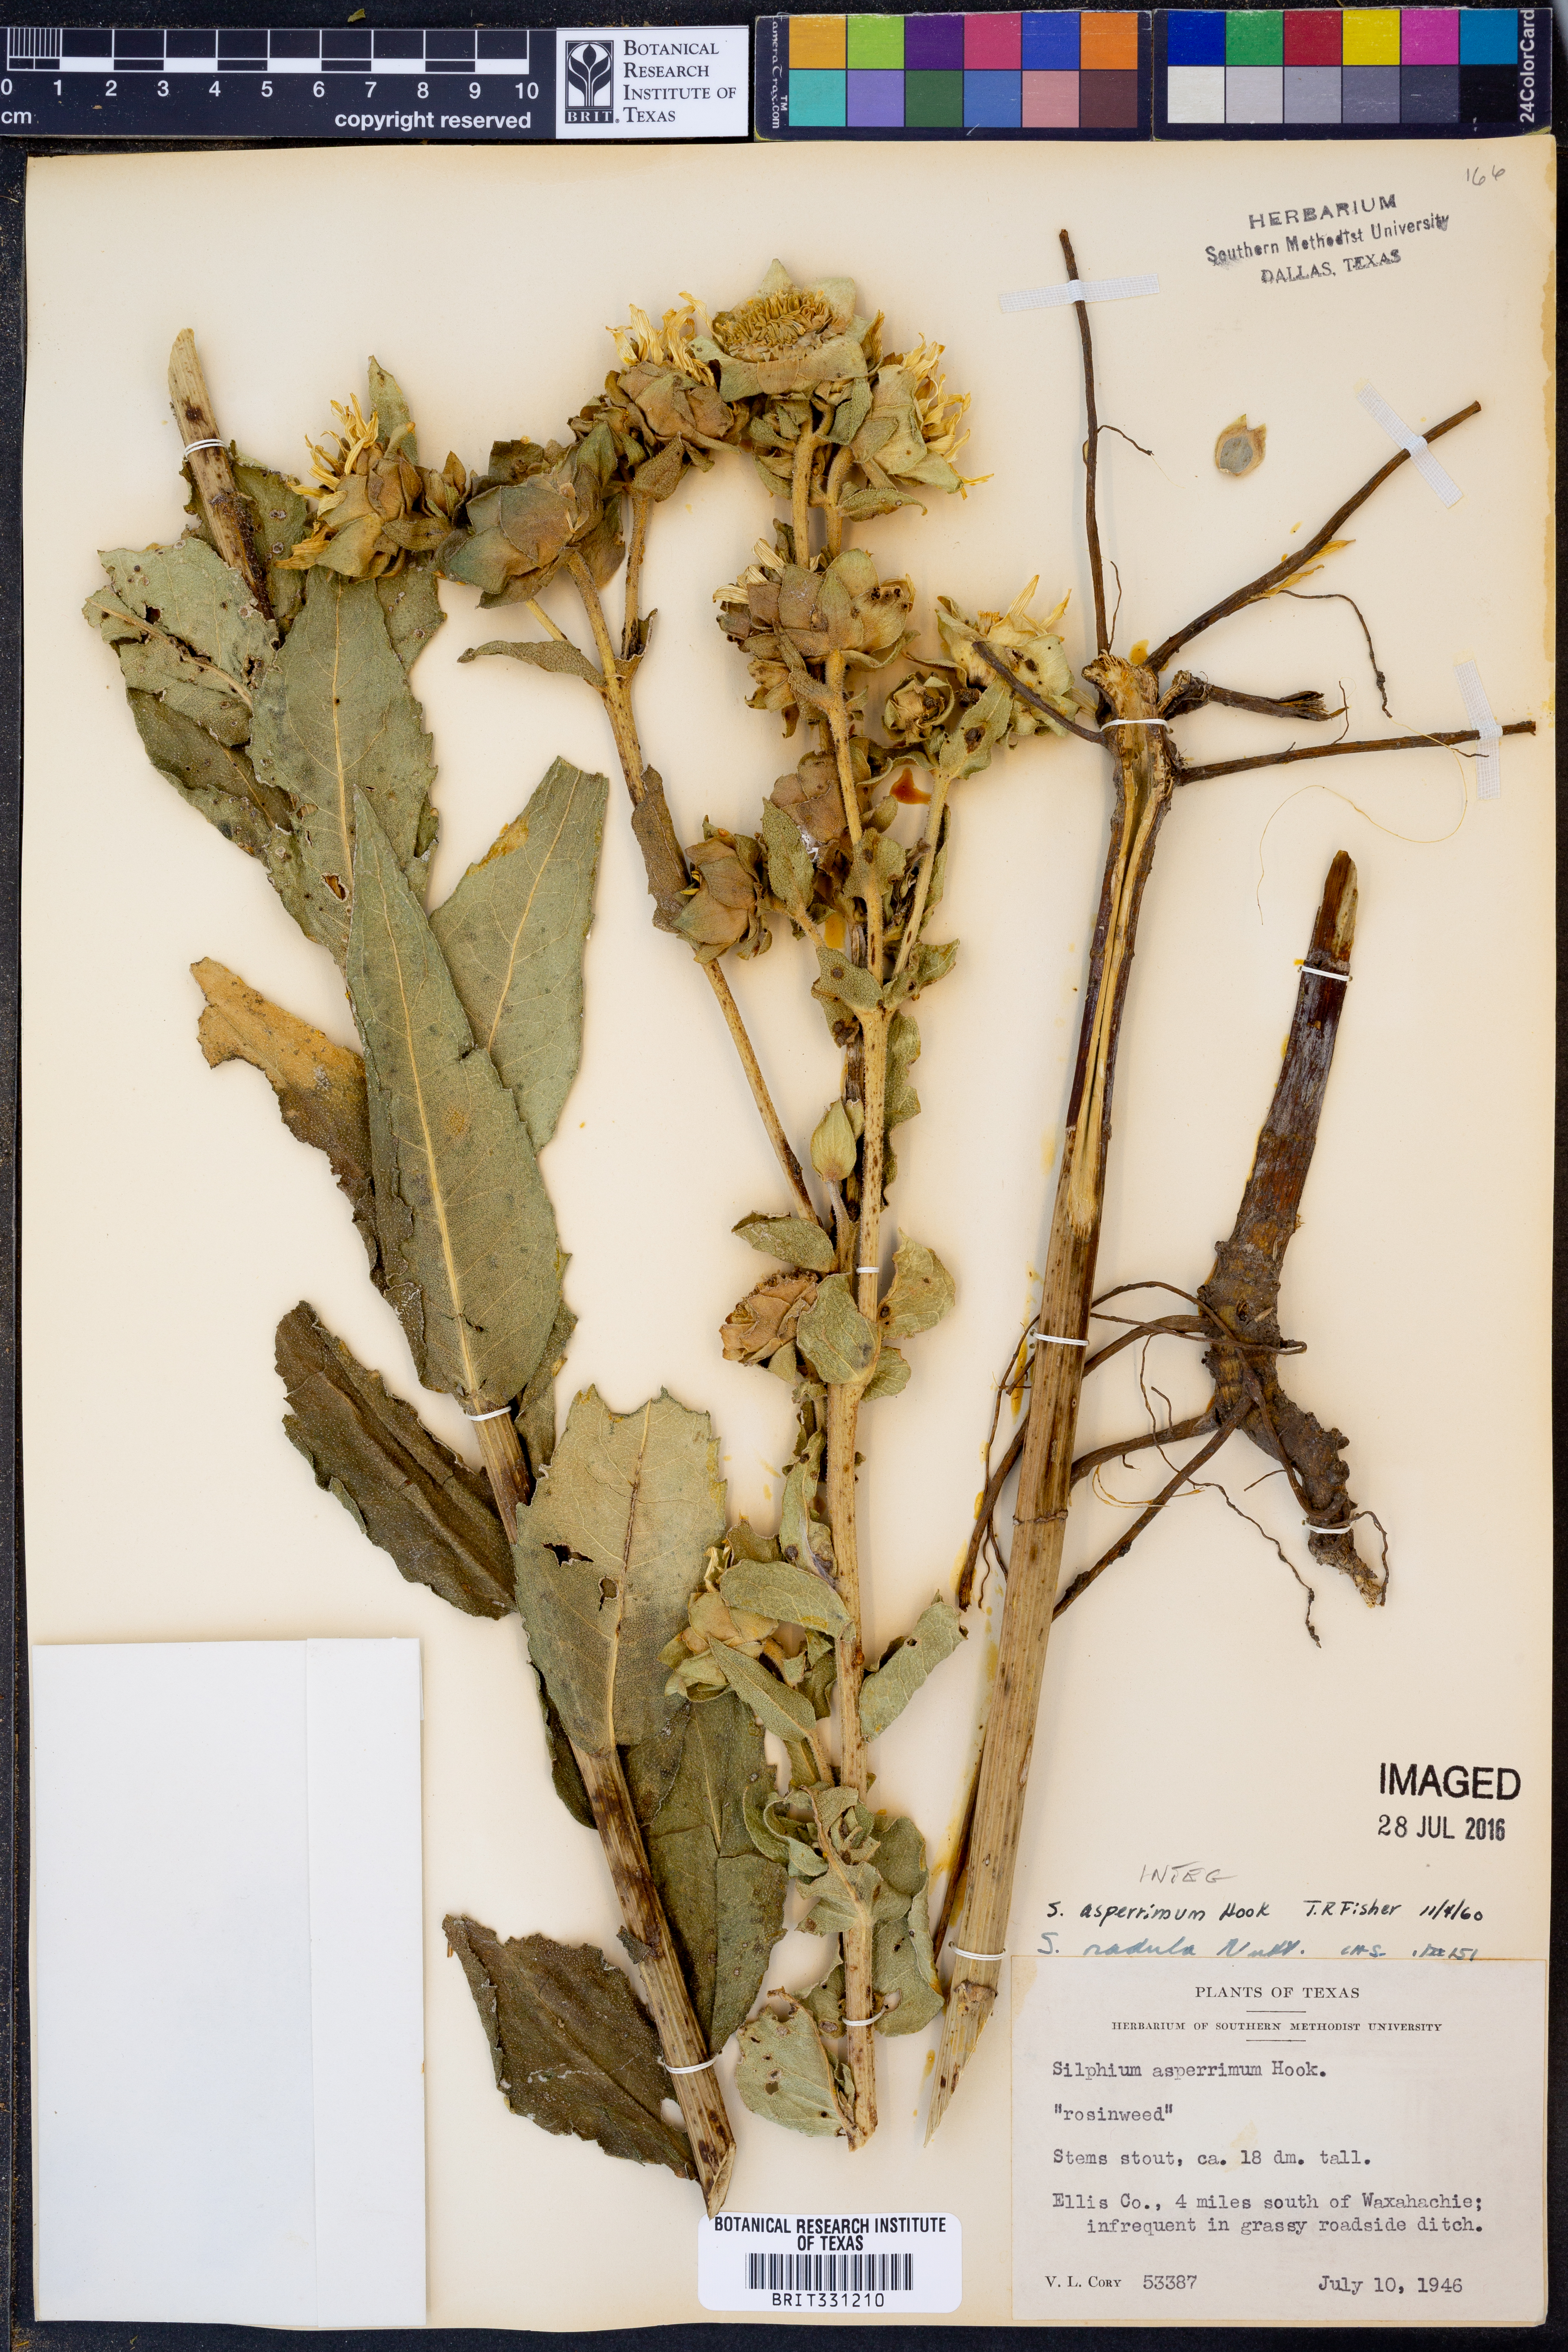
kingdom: Plantae
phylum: Tracheophyta
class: Magnoliopsida
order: Asterales
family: Asteraceae
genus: Silphium
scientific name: Silphium asperrimum
